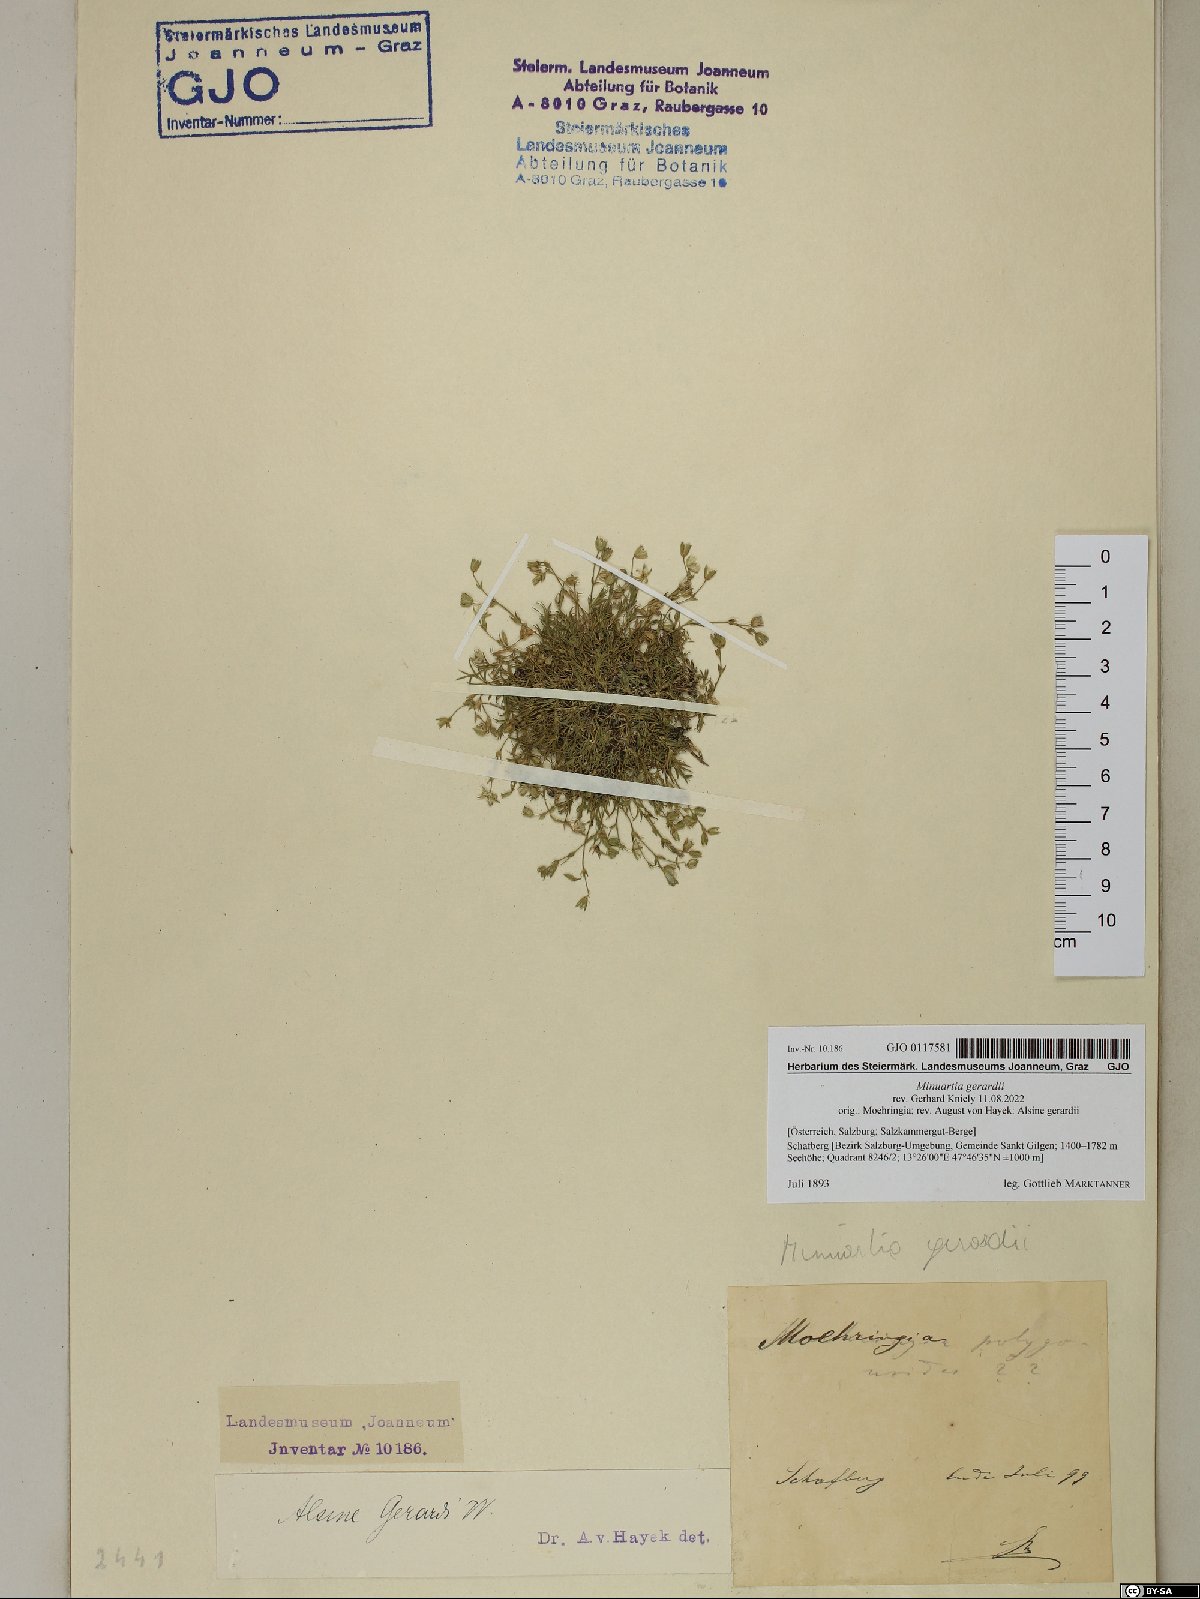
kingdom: Plantae
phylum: Tracheophyta
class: Magnoliopsida
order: Caryophyllales
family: Caryophyllaceae
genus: Sabulina
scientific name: Sabulina verna
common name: Spring sandwort
